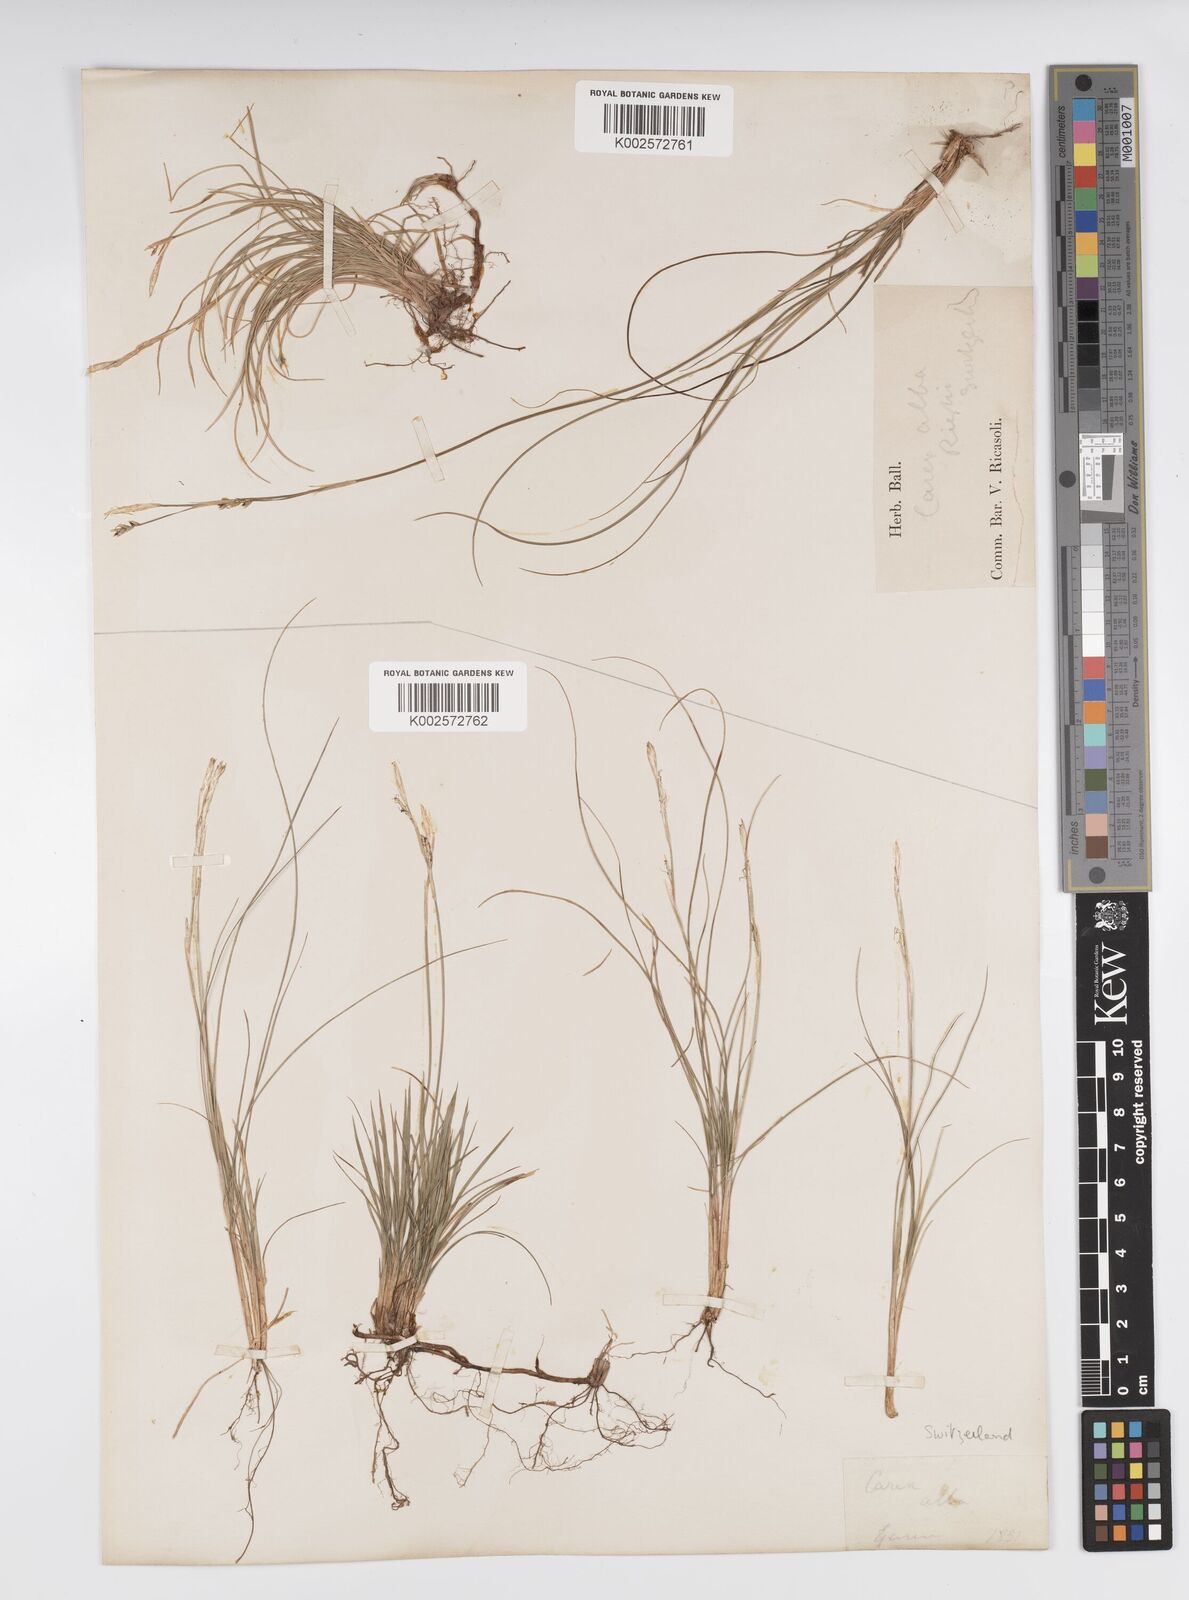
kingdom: Plantae
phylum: Tracheophyta
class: Liliopsida
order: Poales
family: Cyperaceae
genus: Carex
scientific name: Carex alba
